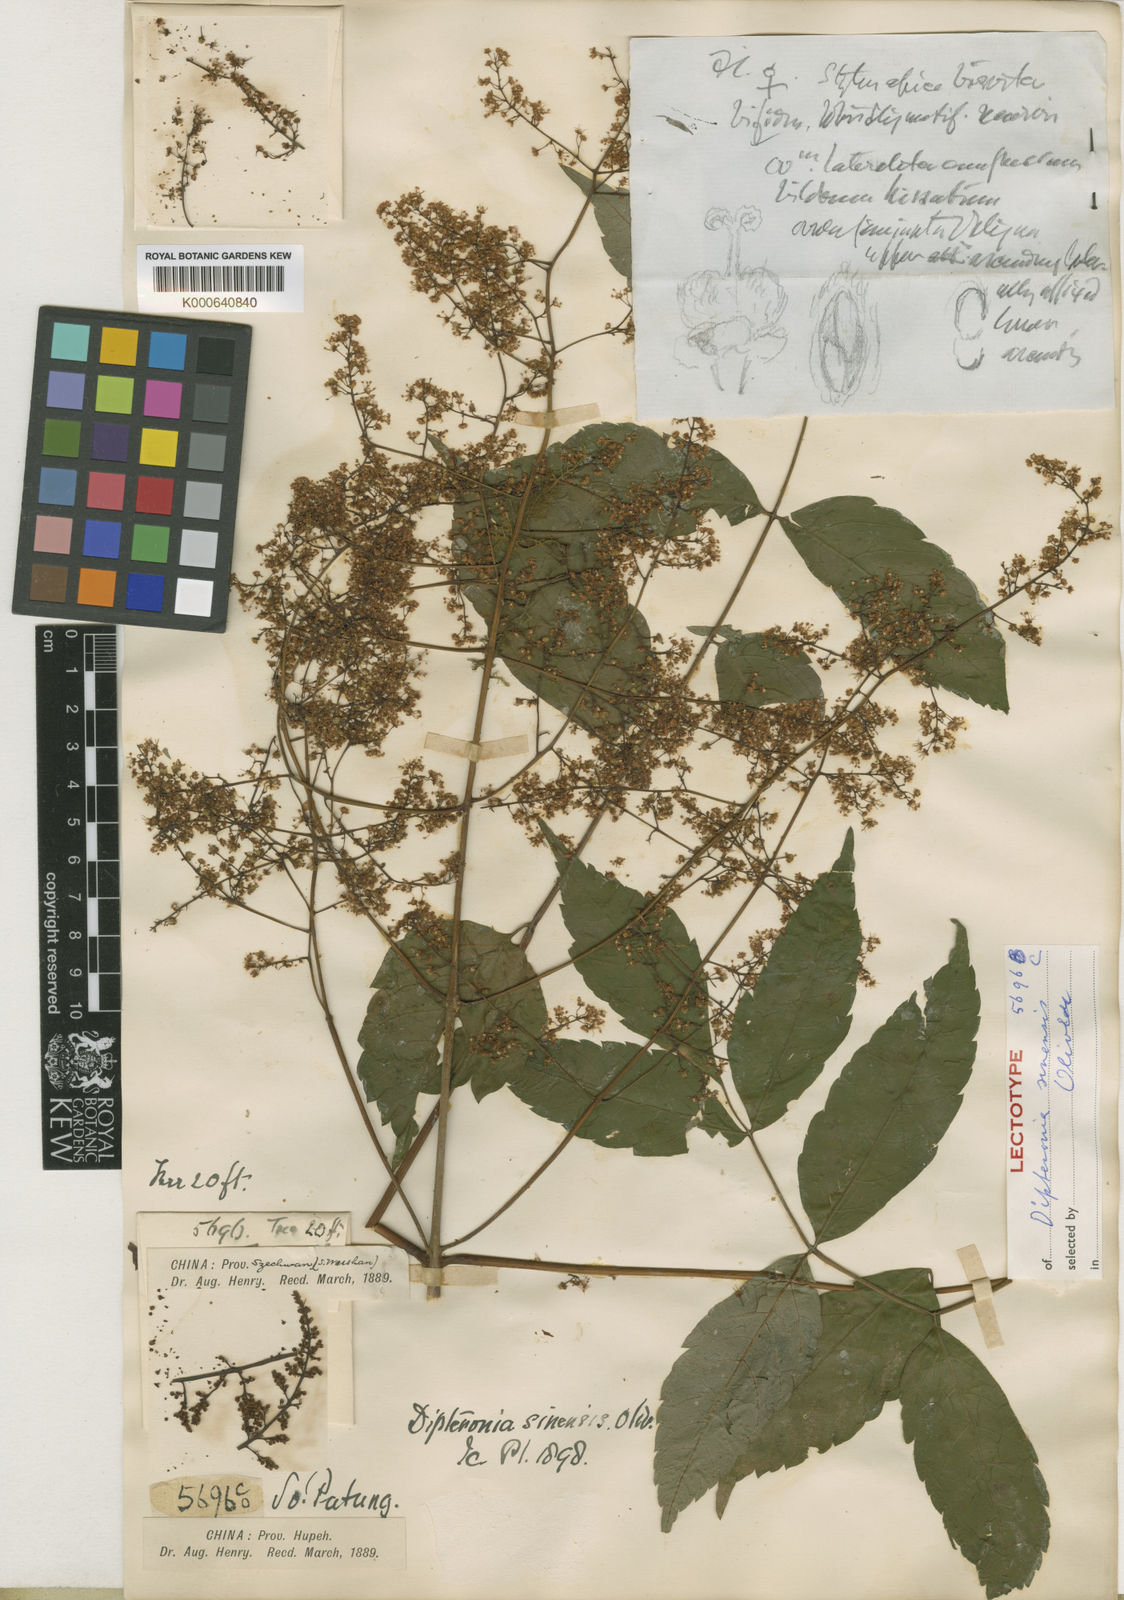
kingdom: Plantae
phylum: Tracheophyta
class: Magnoliopsida
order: Sapindales
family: Sapindaceae
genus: Dipteronia
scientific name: Dipteronia dyeriana
